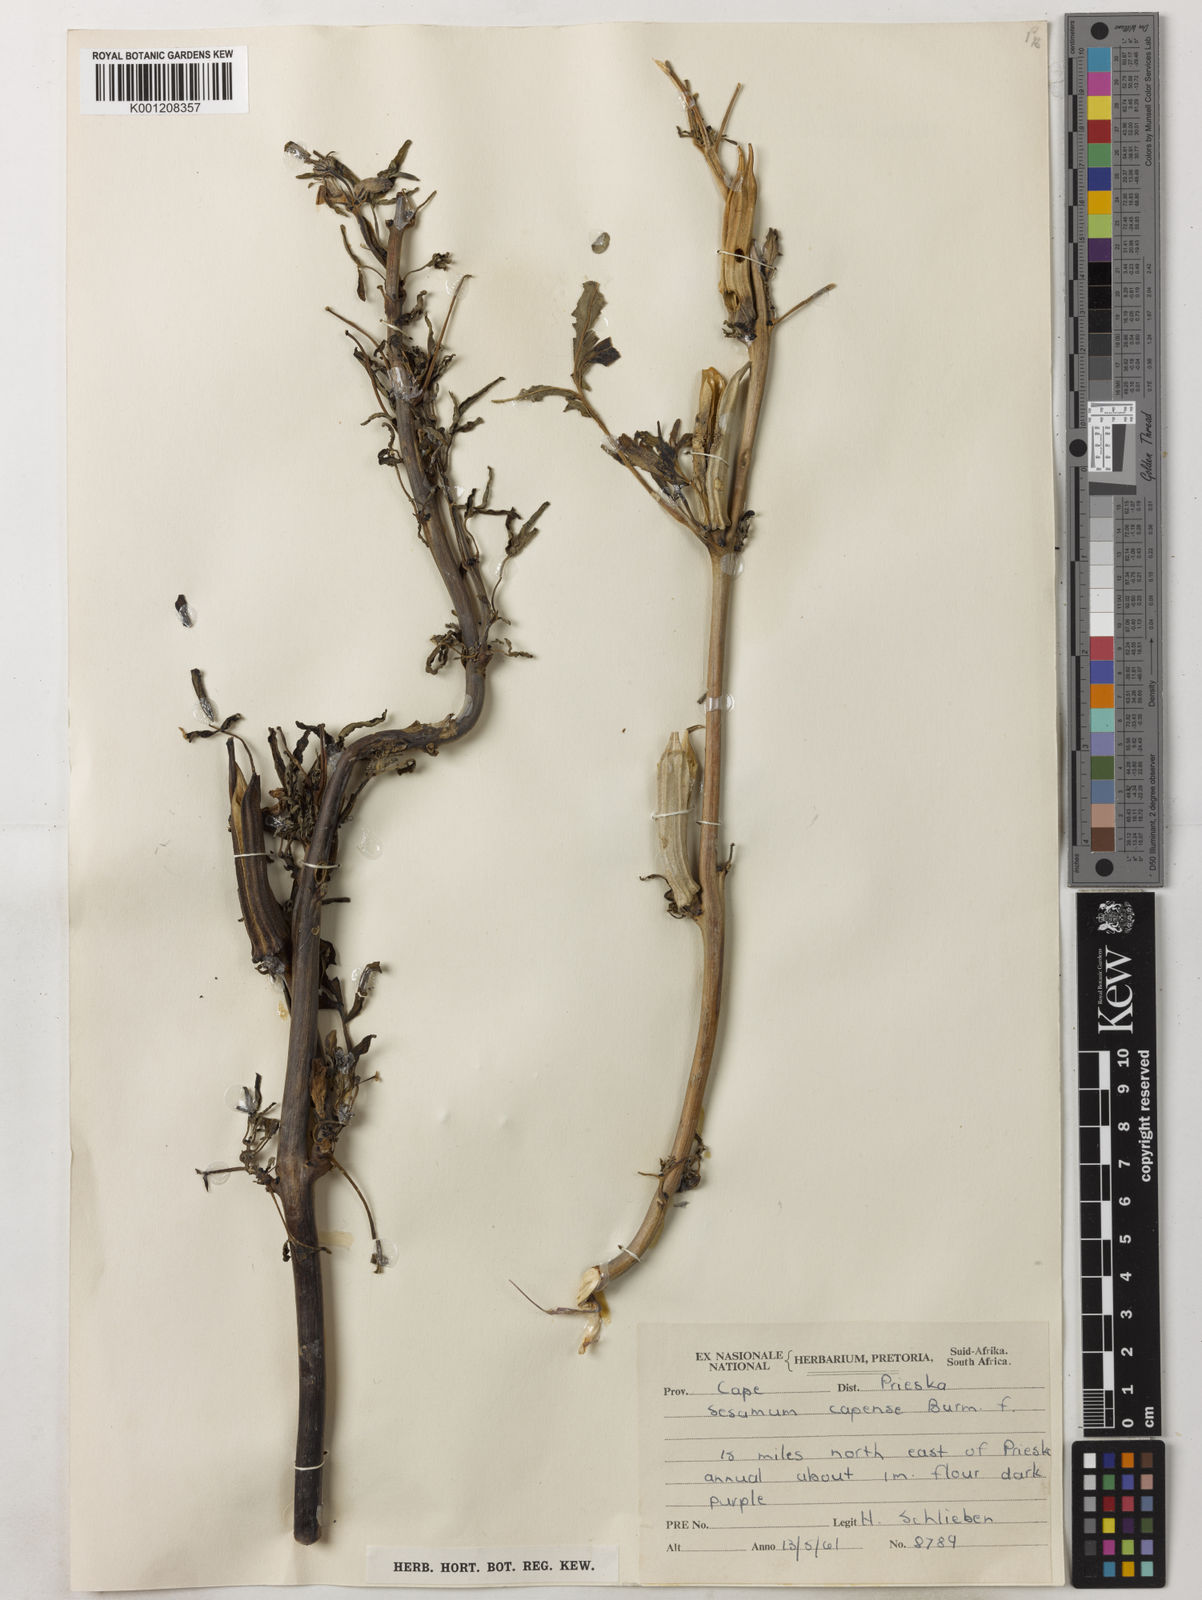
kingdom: Plantae
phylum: Tracheophyta
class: Magnoliopsida
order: Lamiales
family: Pedaliaceae
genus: Sesamum
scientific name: Sesamum capense
